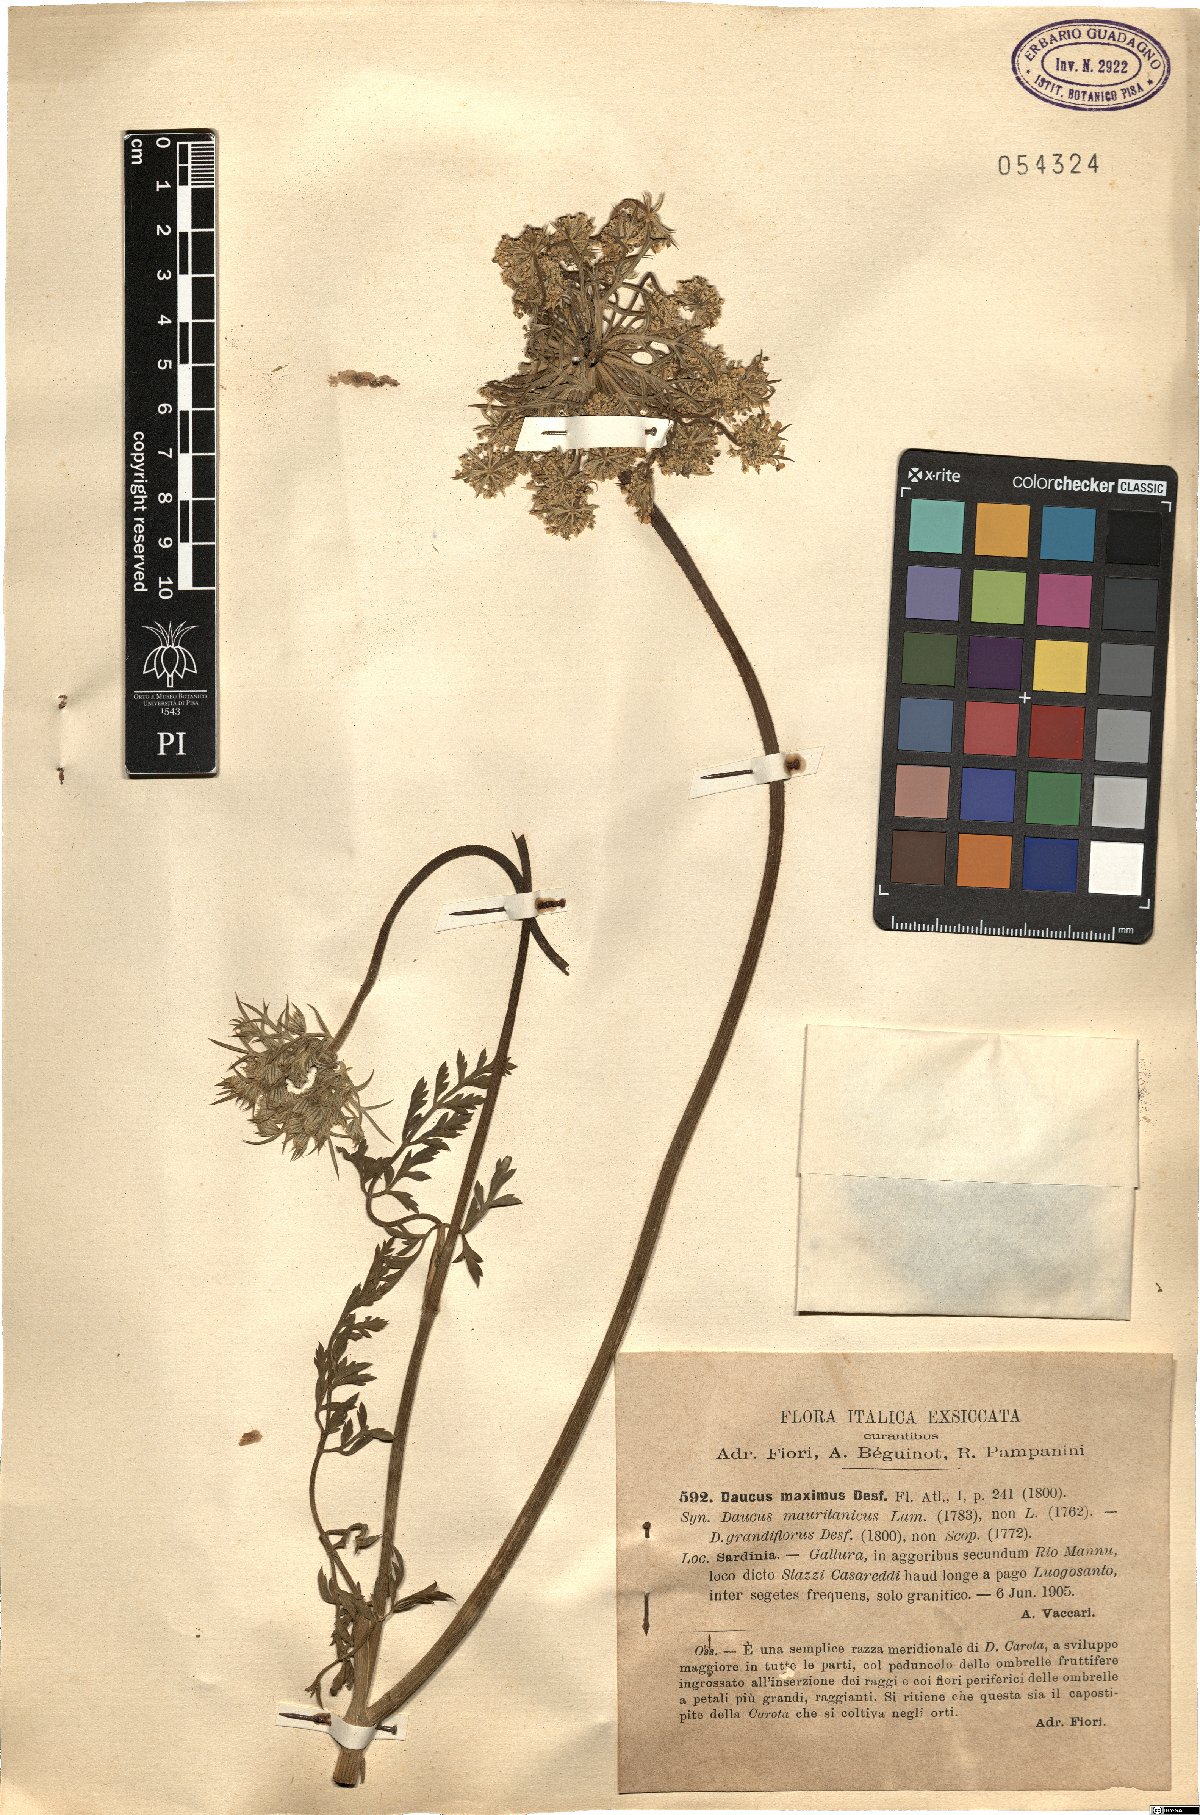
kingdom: Plantae
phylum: Tracheophyta
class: Magnoliopsida
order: Apiales
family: Apiaceae
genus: Daucus
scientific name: Daucus carota
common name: Wild carrot
